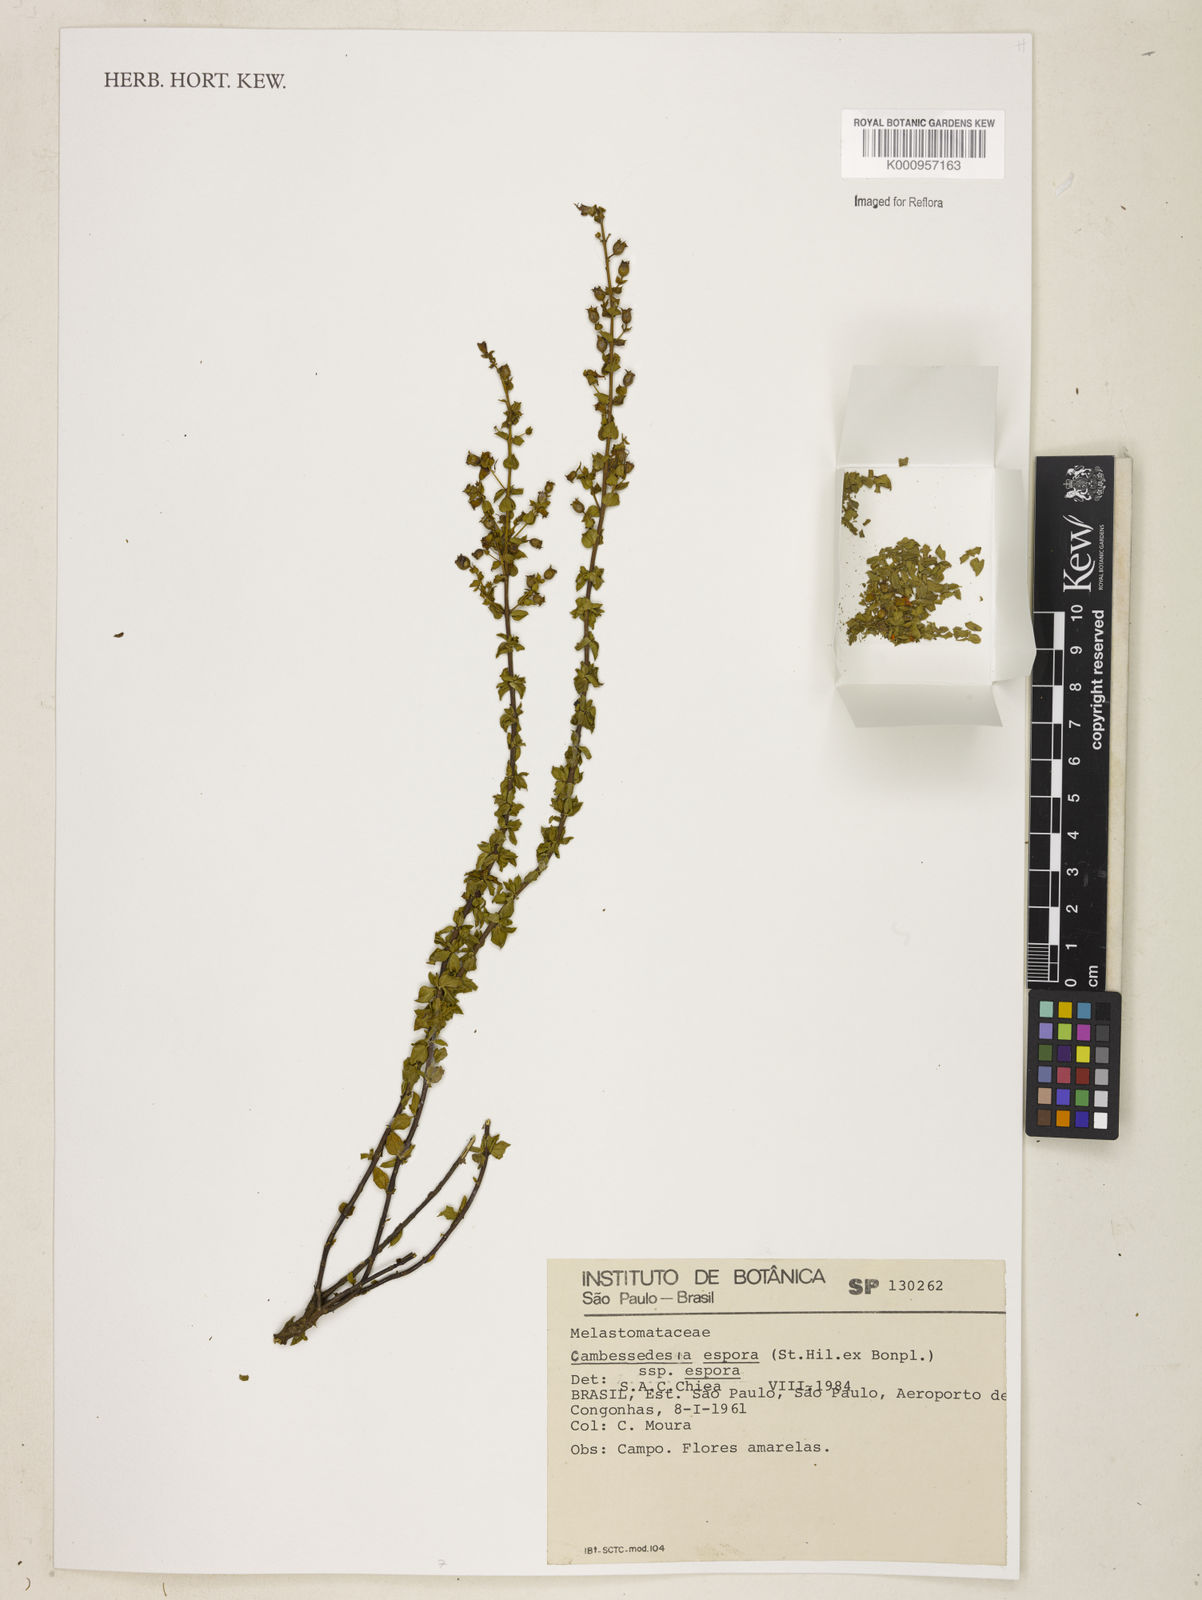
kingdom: Plantae
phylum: Tracheophyta
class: Magnoliopsida
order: Myrtales
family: Melastomataceae
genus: Cambessedesia
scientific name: Cambessedesia espora
